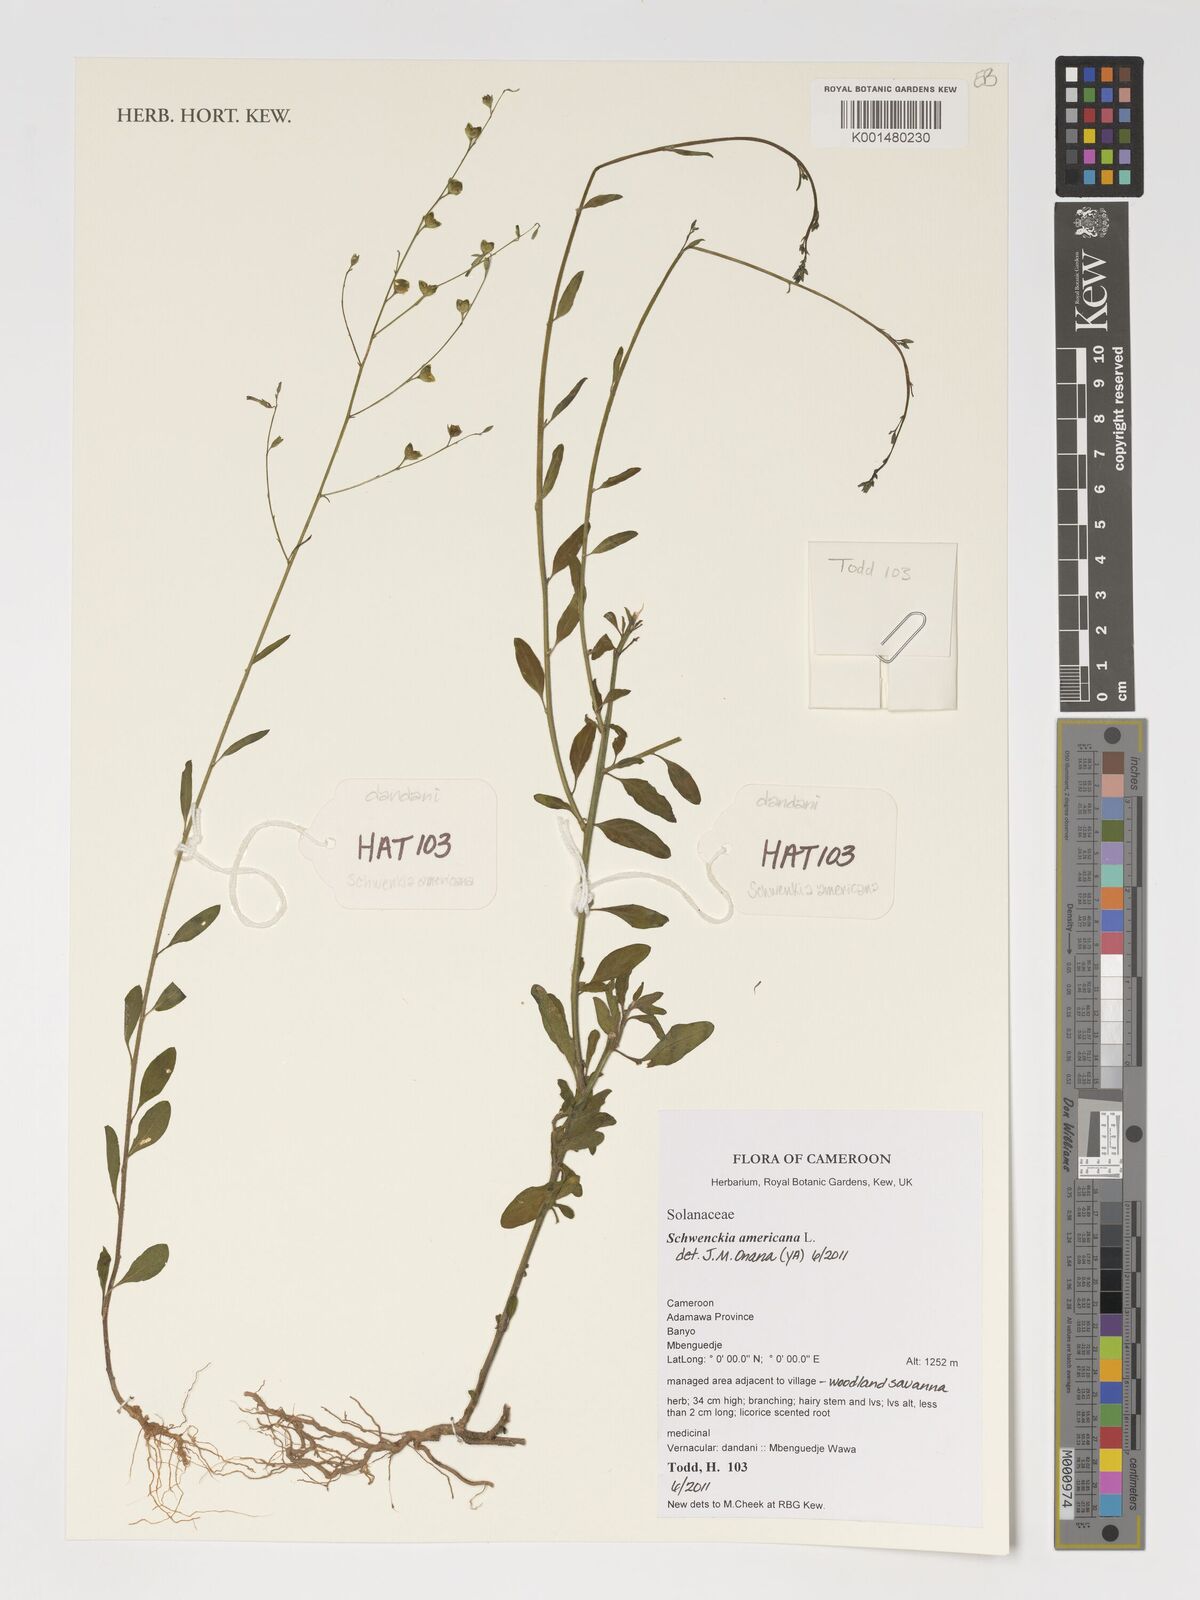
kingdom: Plantae
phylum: Tracheophyta
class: Magnoliopsida
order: Solanales
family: Solanaceae
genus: Schwenckia
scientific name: Schwenckia americana
